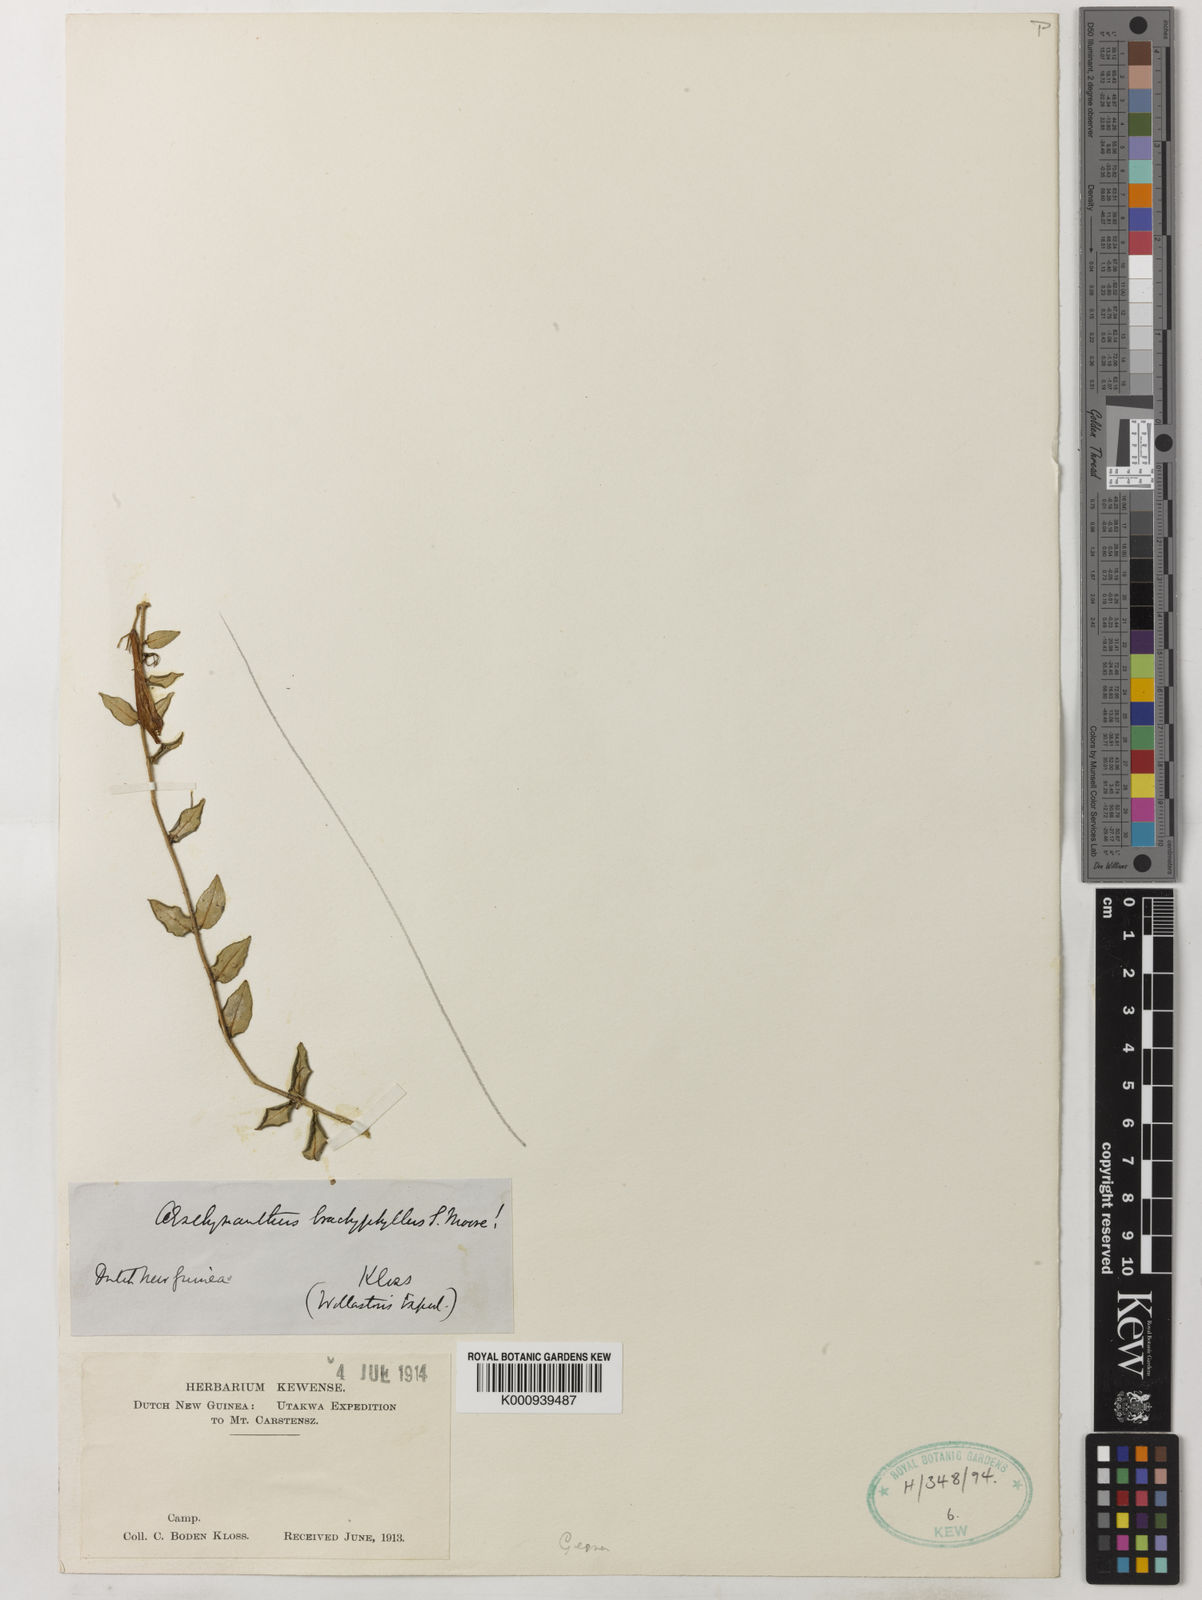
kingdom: Plantae
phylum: Tracheophyta
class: Magnoliopsida
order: Lamiales
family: Gesneriaceae
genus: Aeschynanthus
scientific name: Aeschynanthus brachyphyllus
